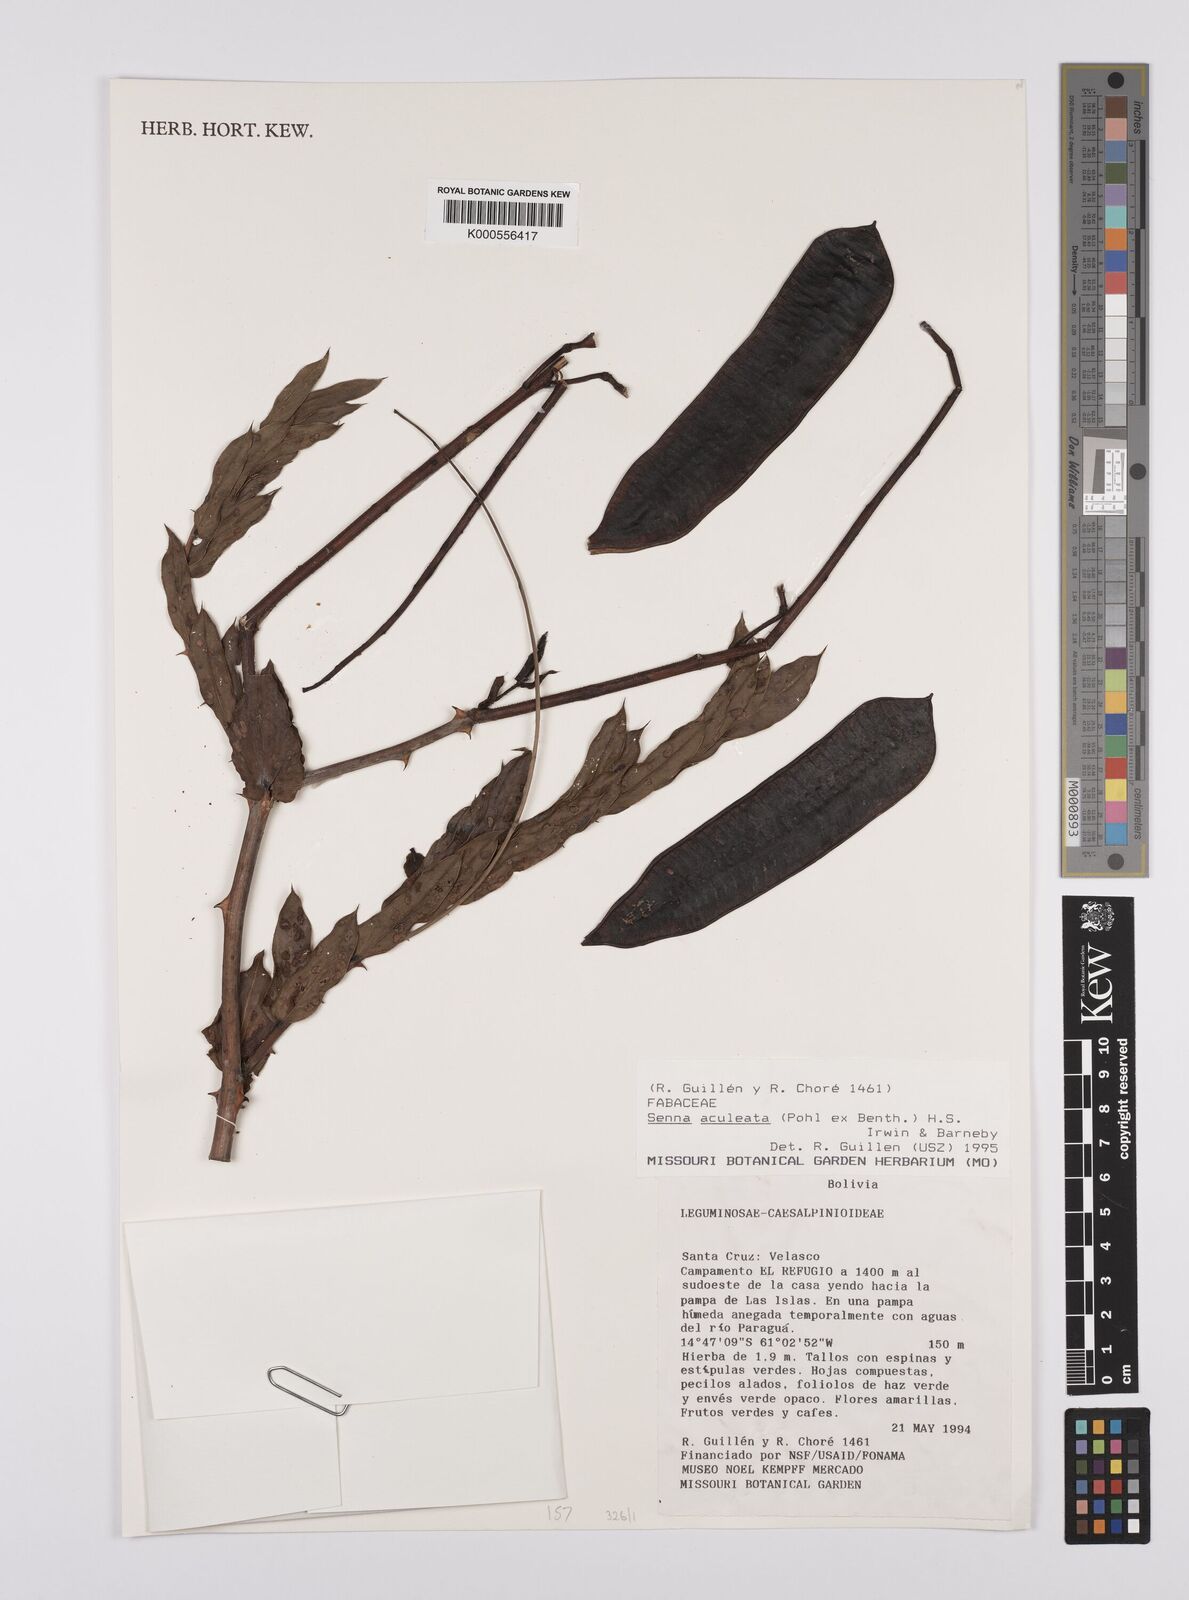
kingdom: Plantae
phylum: Tracheophyta
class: Magnoliopsida
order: Fabales
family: Fabaceae
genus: Senna
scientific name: Senna aculeata
